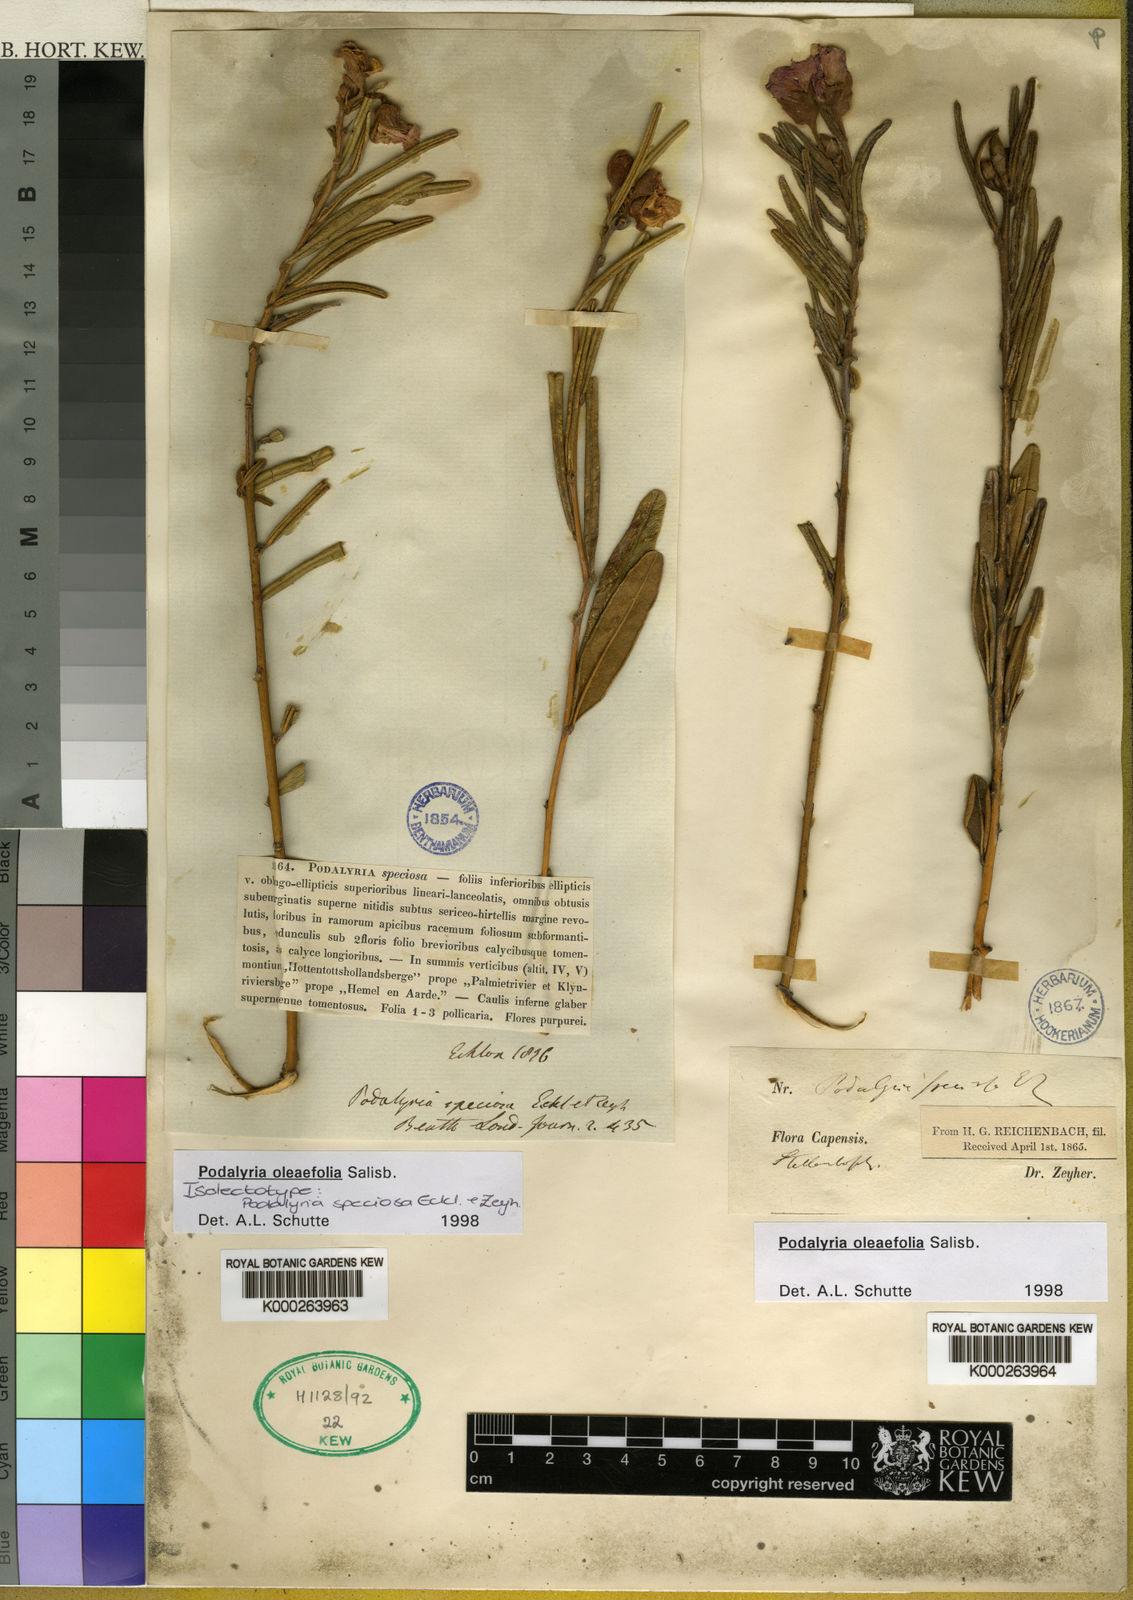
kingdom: Plantae
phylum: Tracheophyta
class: Magnoliopsida
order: Fabales
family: Fabaceae
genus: Podalyria
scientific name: Podalyria oleifolia
